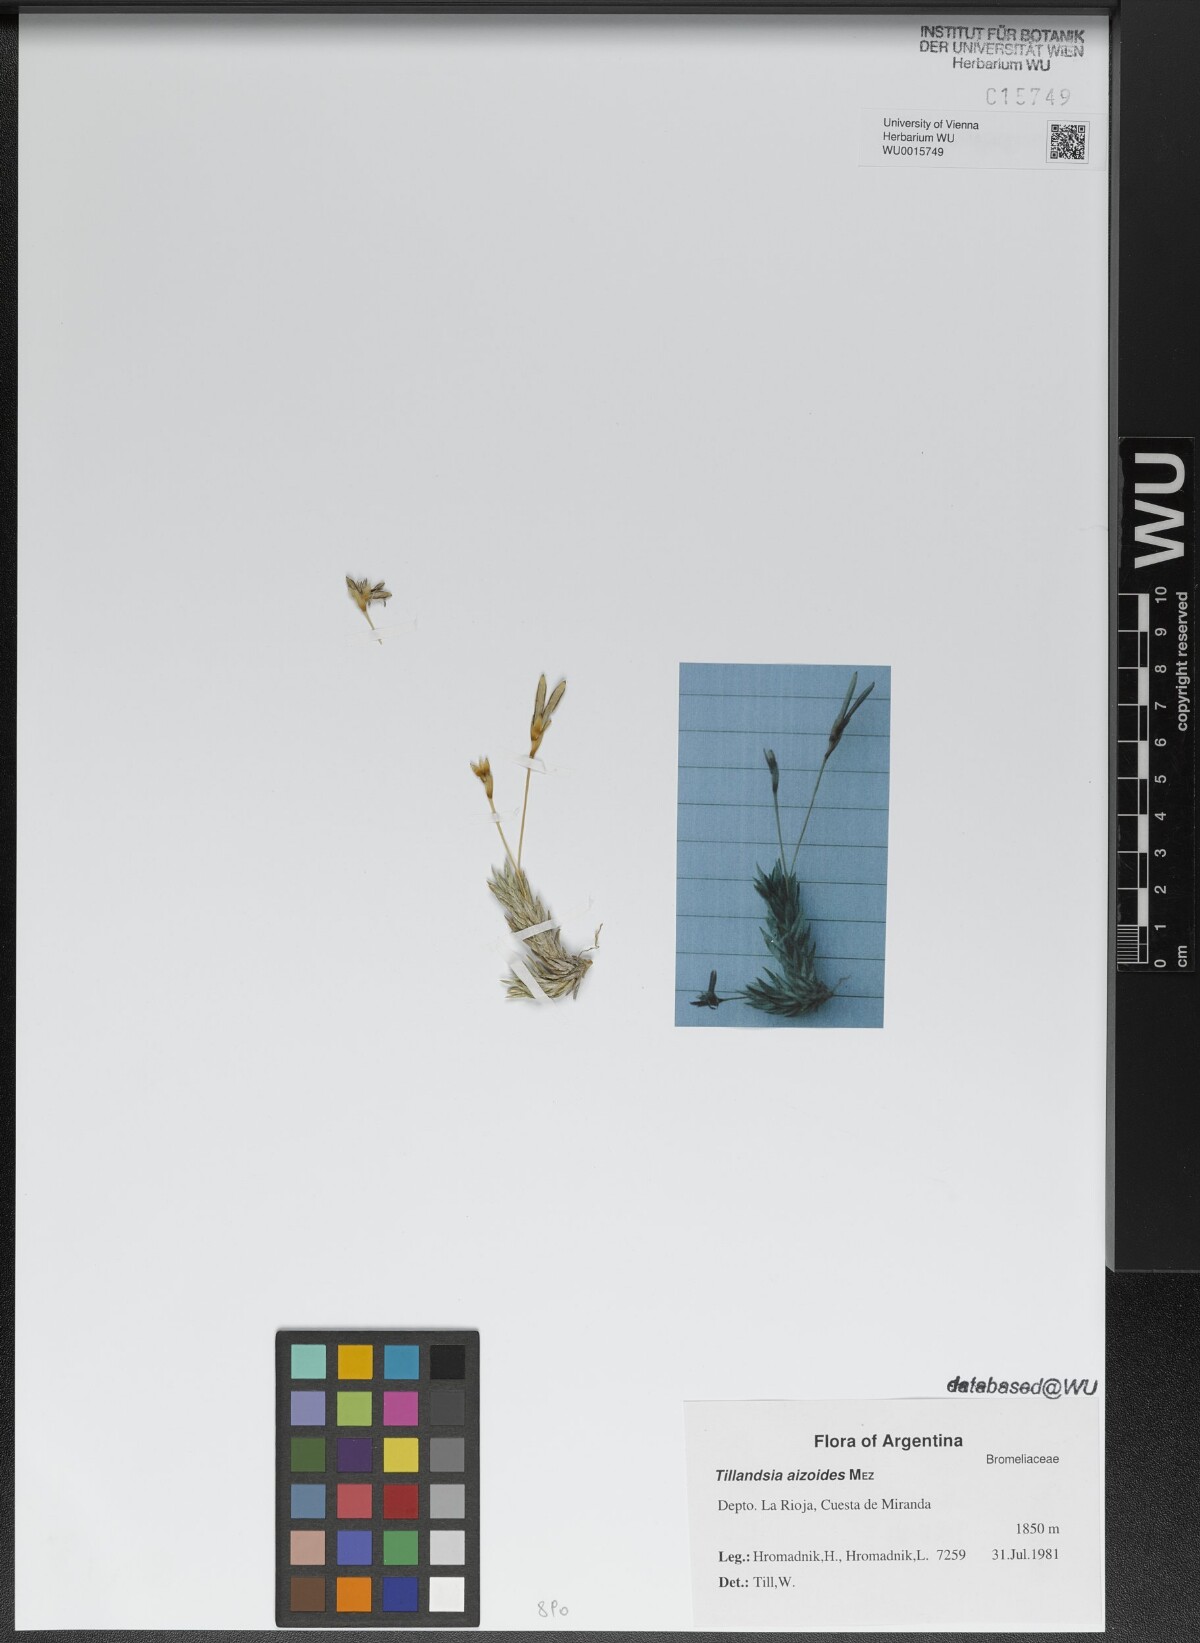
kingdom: Plantae
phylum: Tracheophyta
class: Liliopsida
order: Poales
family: Bromeliaceae
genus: Tillandsia
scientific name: Tillandsia aizoides
